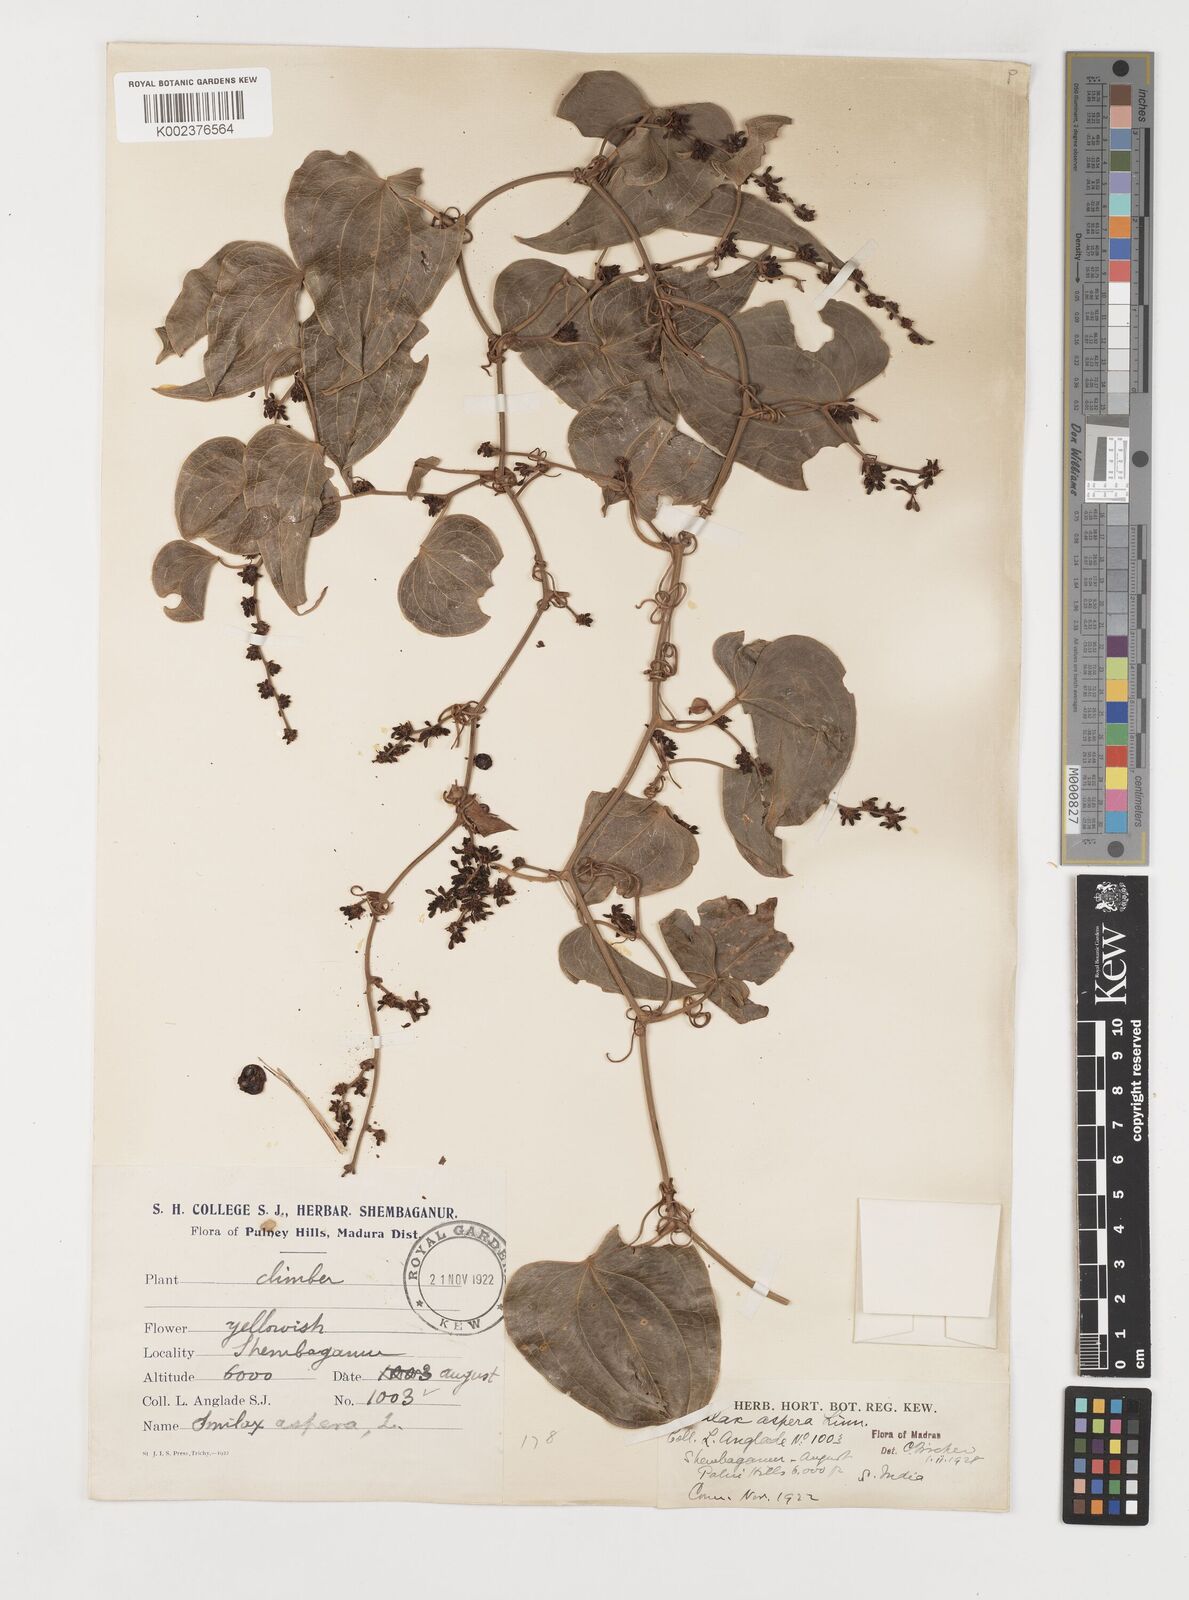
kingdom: Plantae
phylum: Tracheophyta
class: Liliopsida
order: Liliales
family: Smilacaceae
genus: Smilax
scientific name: Smilax aspera
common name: Common smilax
